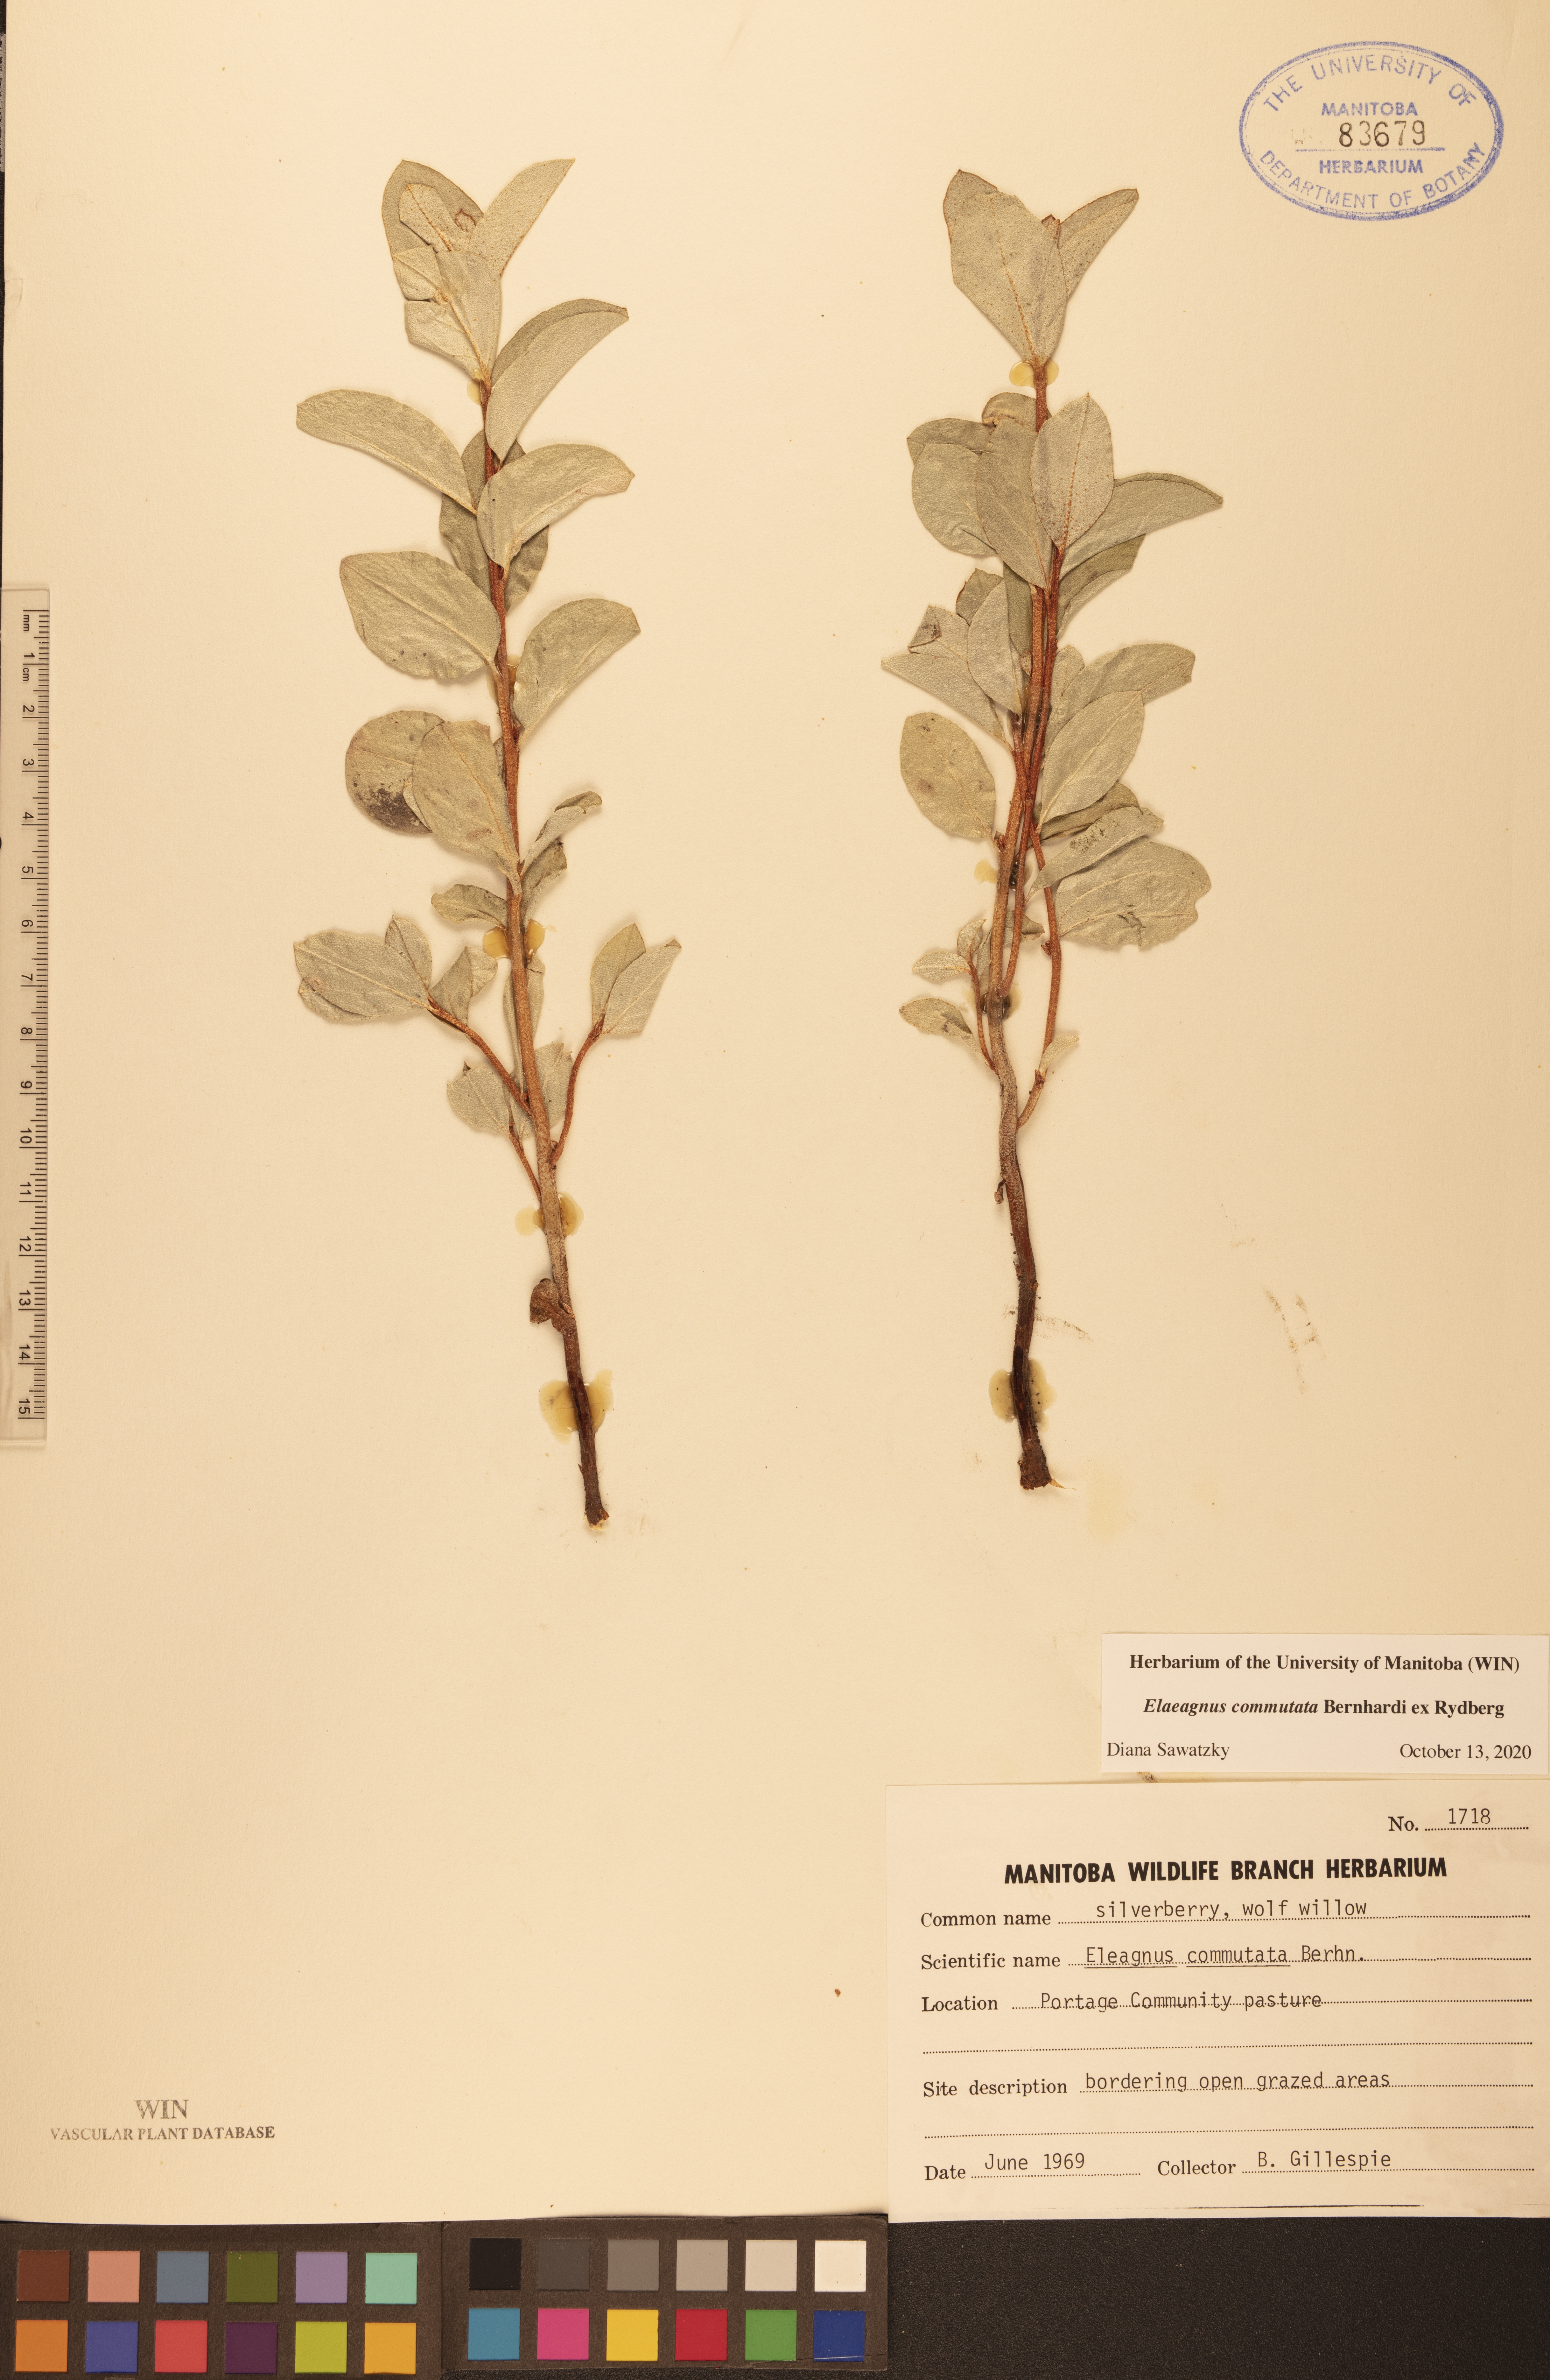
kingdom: Plantae
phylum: Tracheophyta
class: Magnoliopsida
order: Rosales
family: Elaeagnaceae
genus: Elaeagnus
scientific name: Elaeagnus commutata
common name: Silverberry
